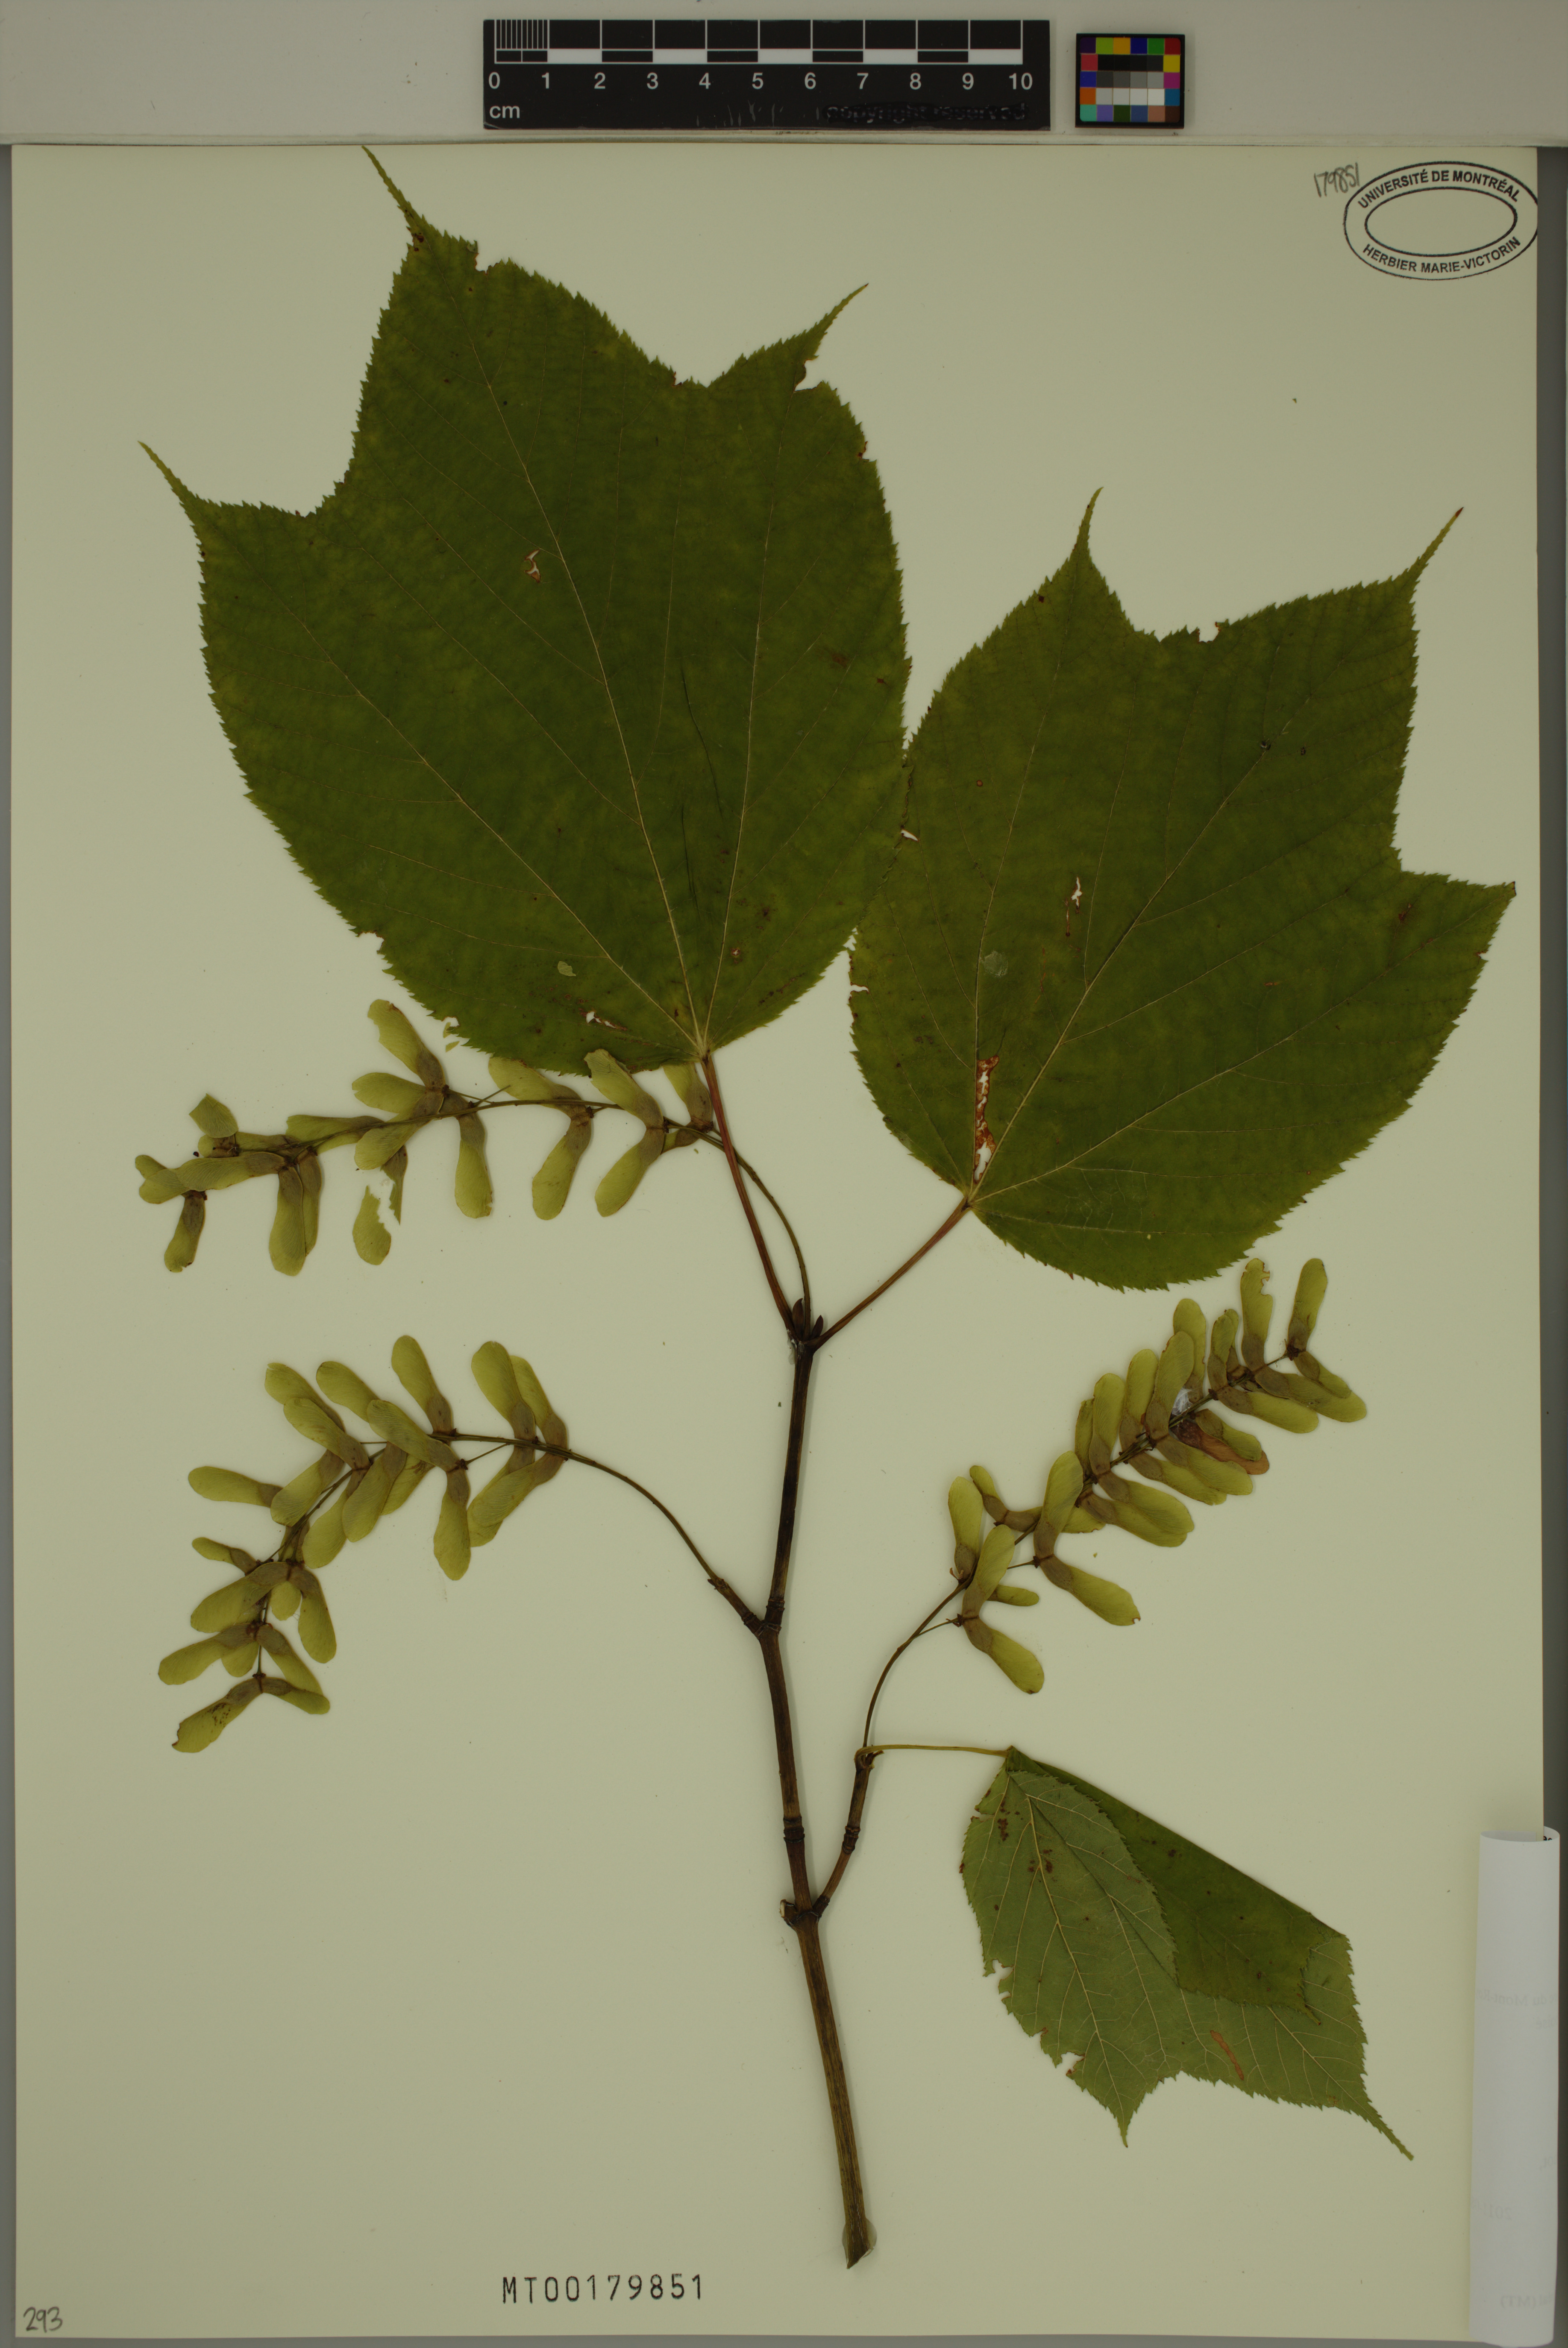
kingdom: Plantae
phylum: Tracheophyta
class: Magnoliopsida
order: Sapindales
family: Sapindaceae
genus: Acer
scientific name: Acer pensylvanicum
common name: Moosewood
